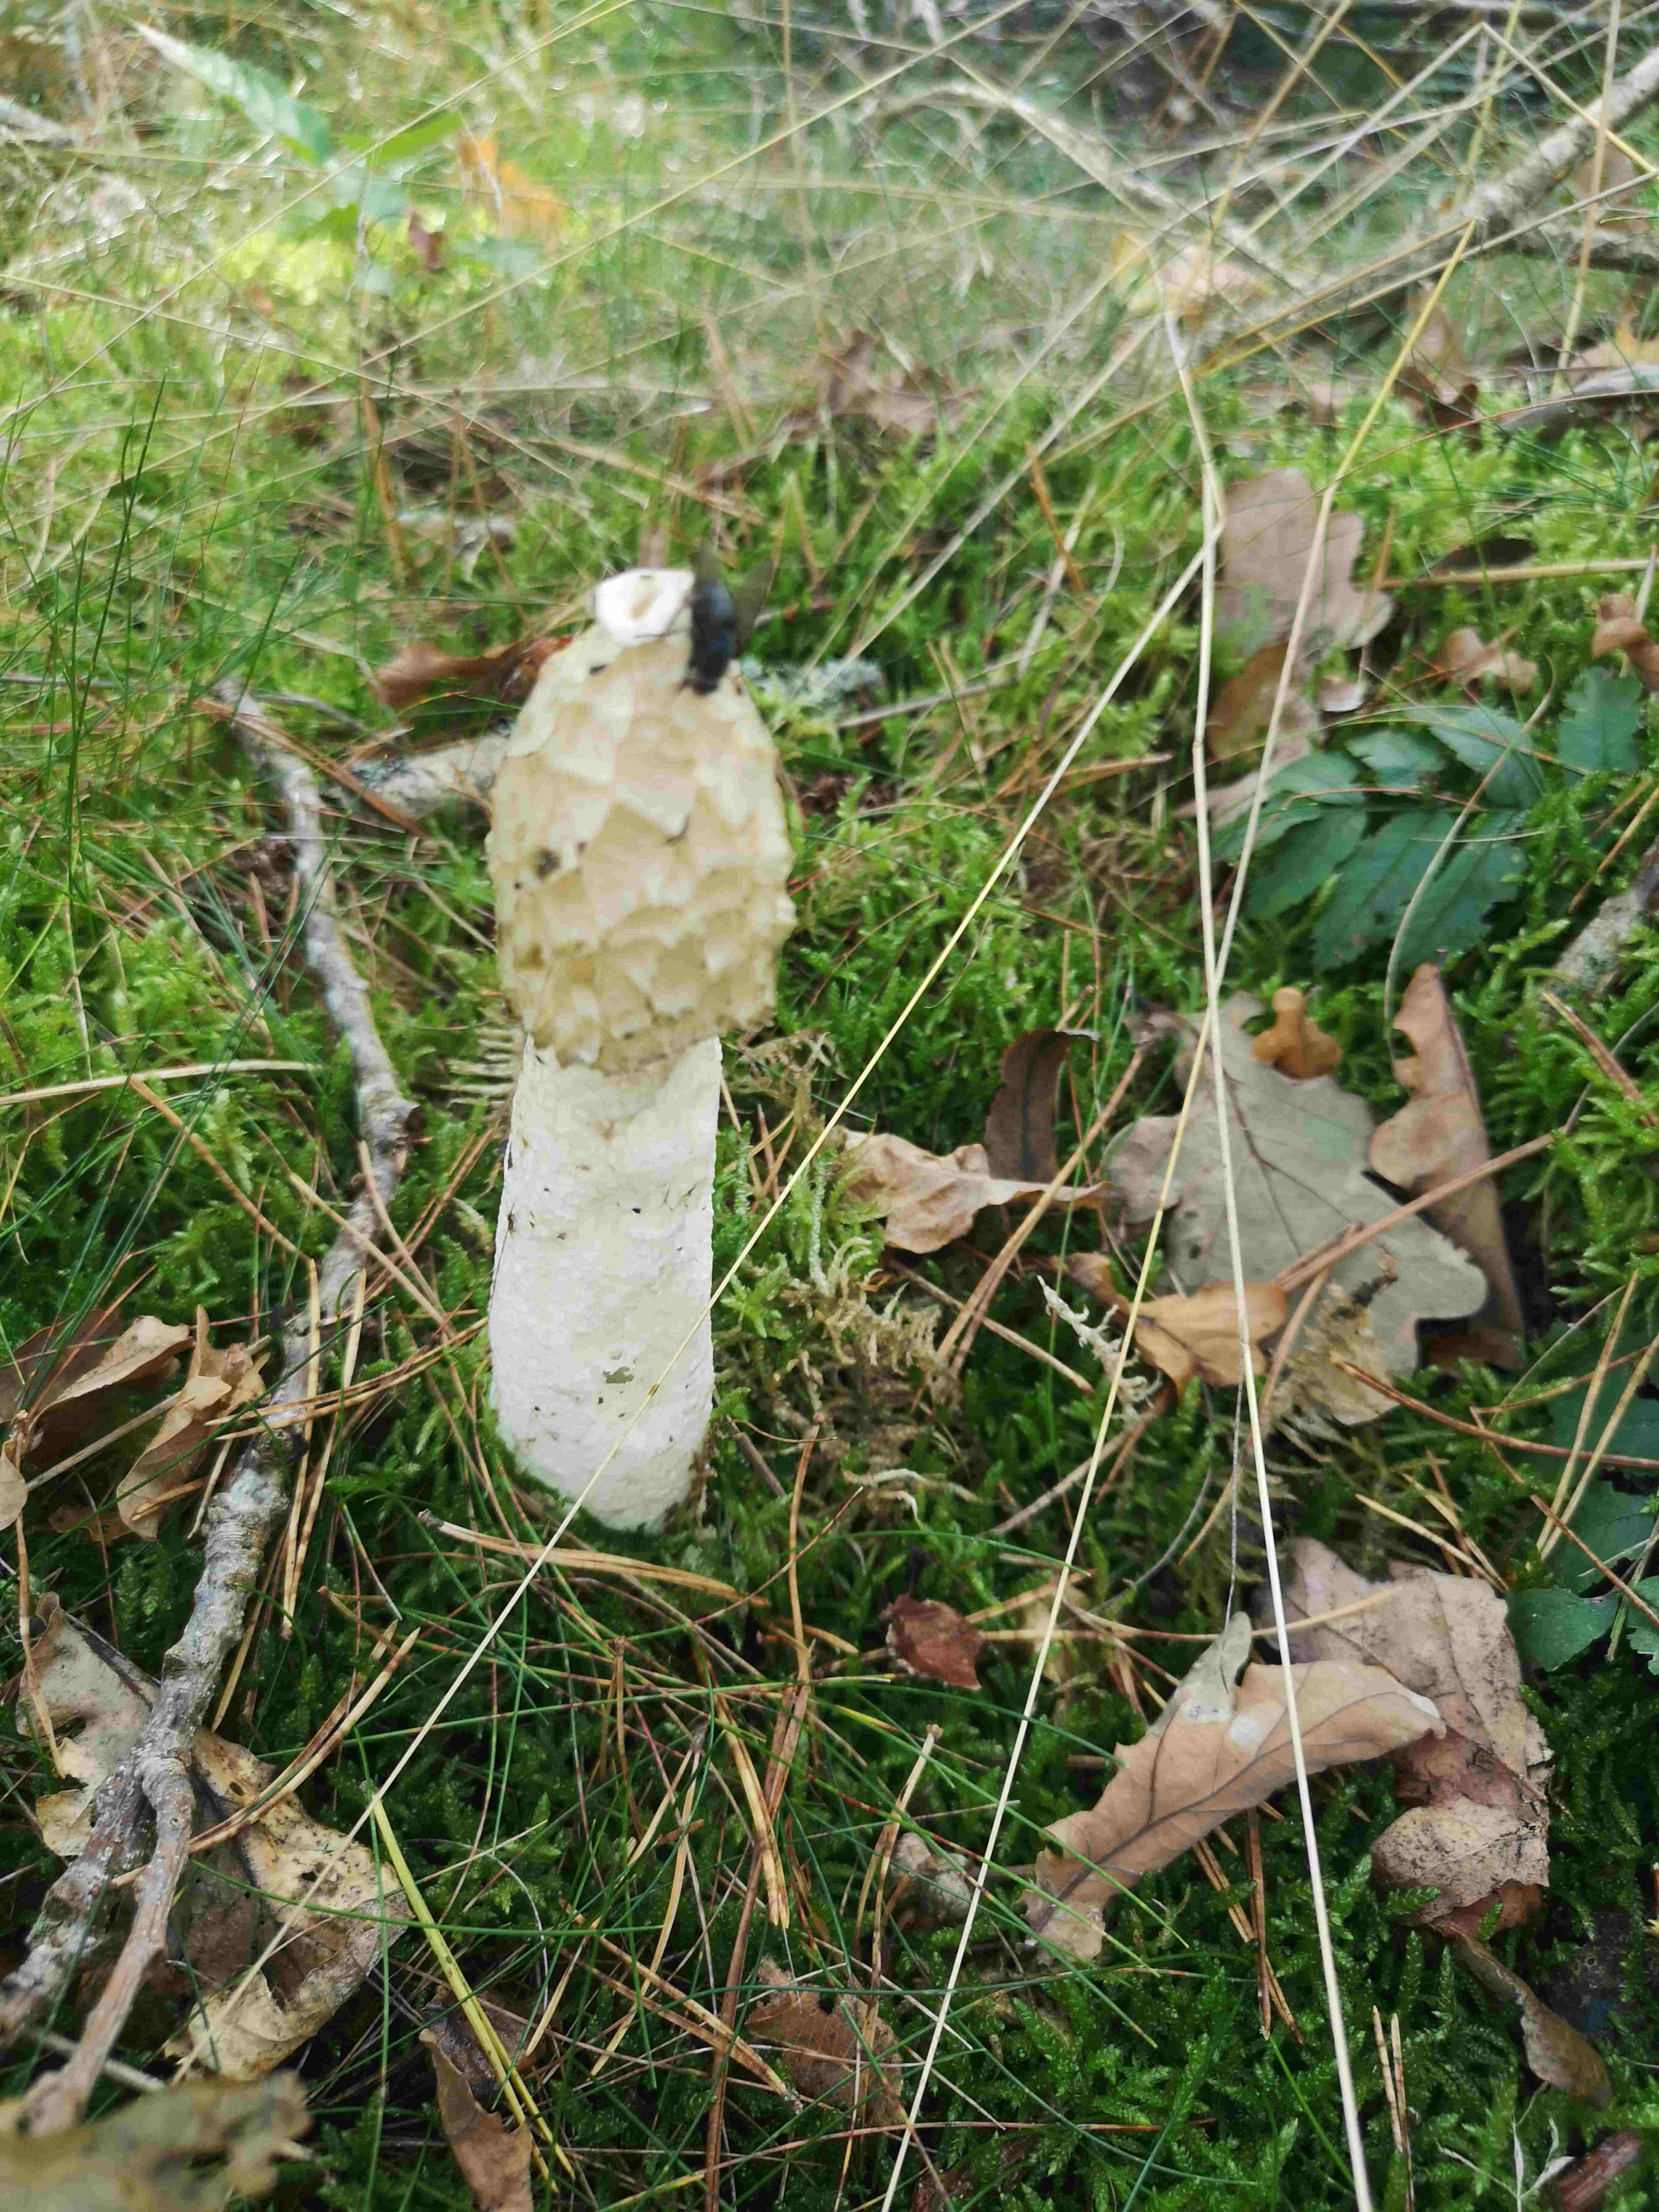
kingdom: Fungi
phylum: Basidiomycota
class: Agaricomycetes
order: Phallales
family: Phallaceae
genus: Phallus
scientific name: Phallus impudicus
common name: almindelig stinksvamp
